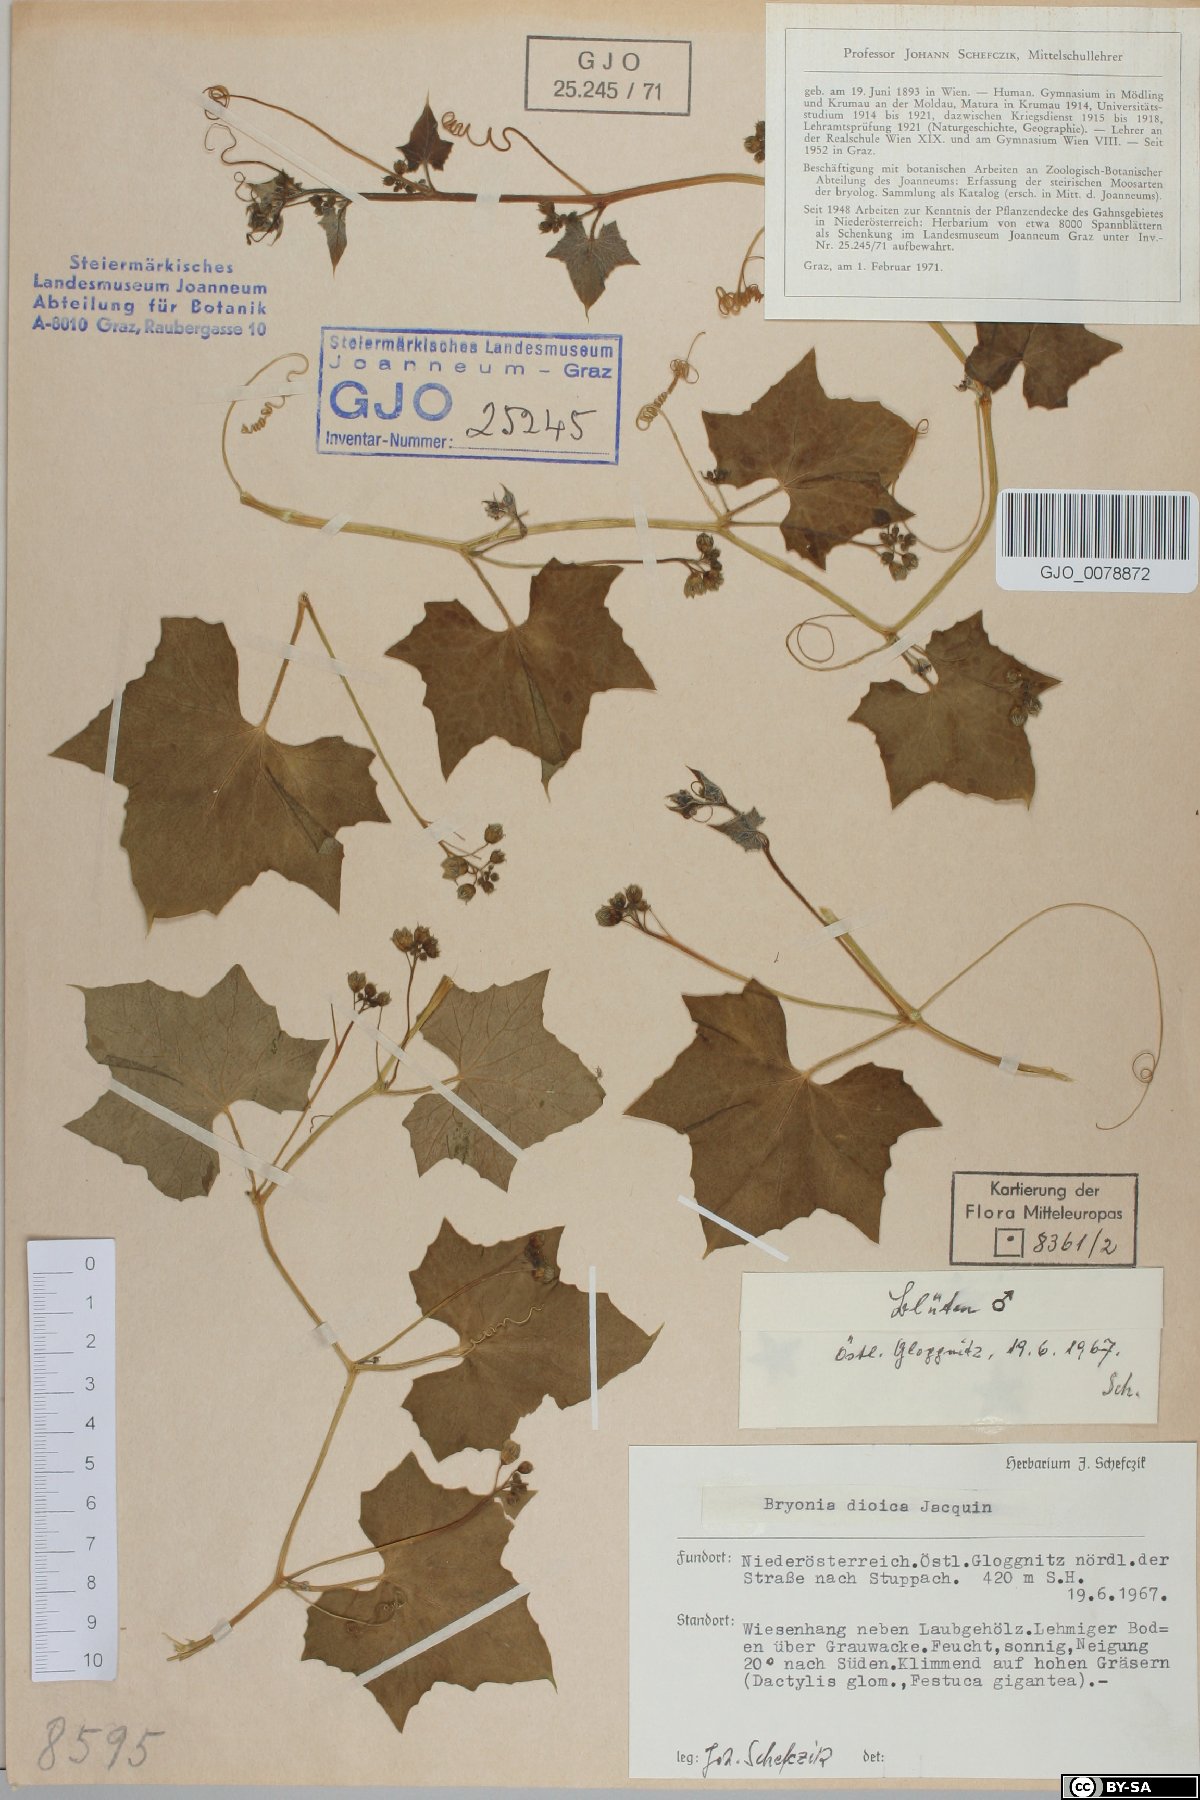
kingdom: Plantae
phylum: Tracheophyta
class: Magnoliopsida
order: Cucurbitales
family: Cucurbitaceae
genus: Bryonia
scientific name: Bryonia dioica
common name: White bryony
